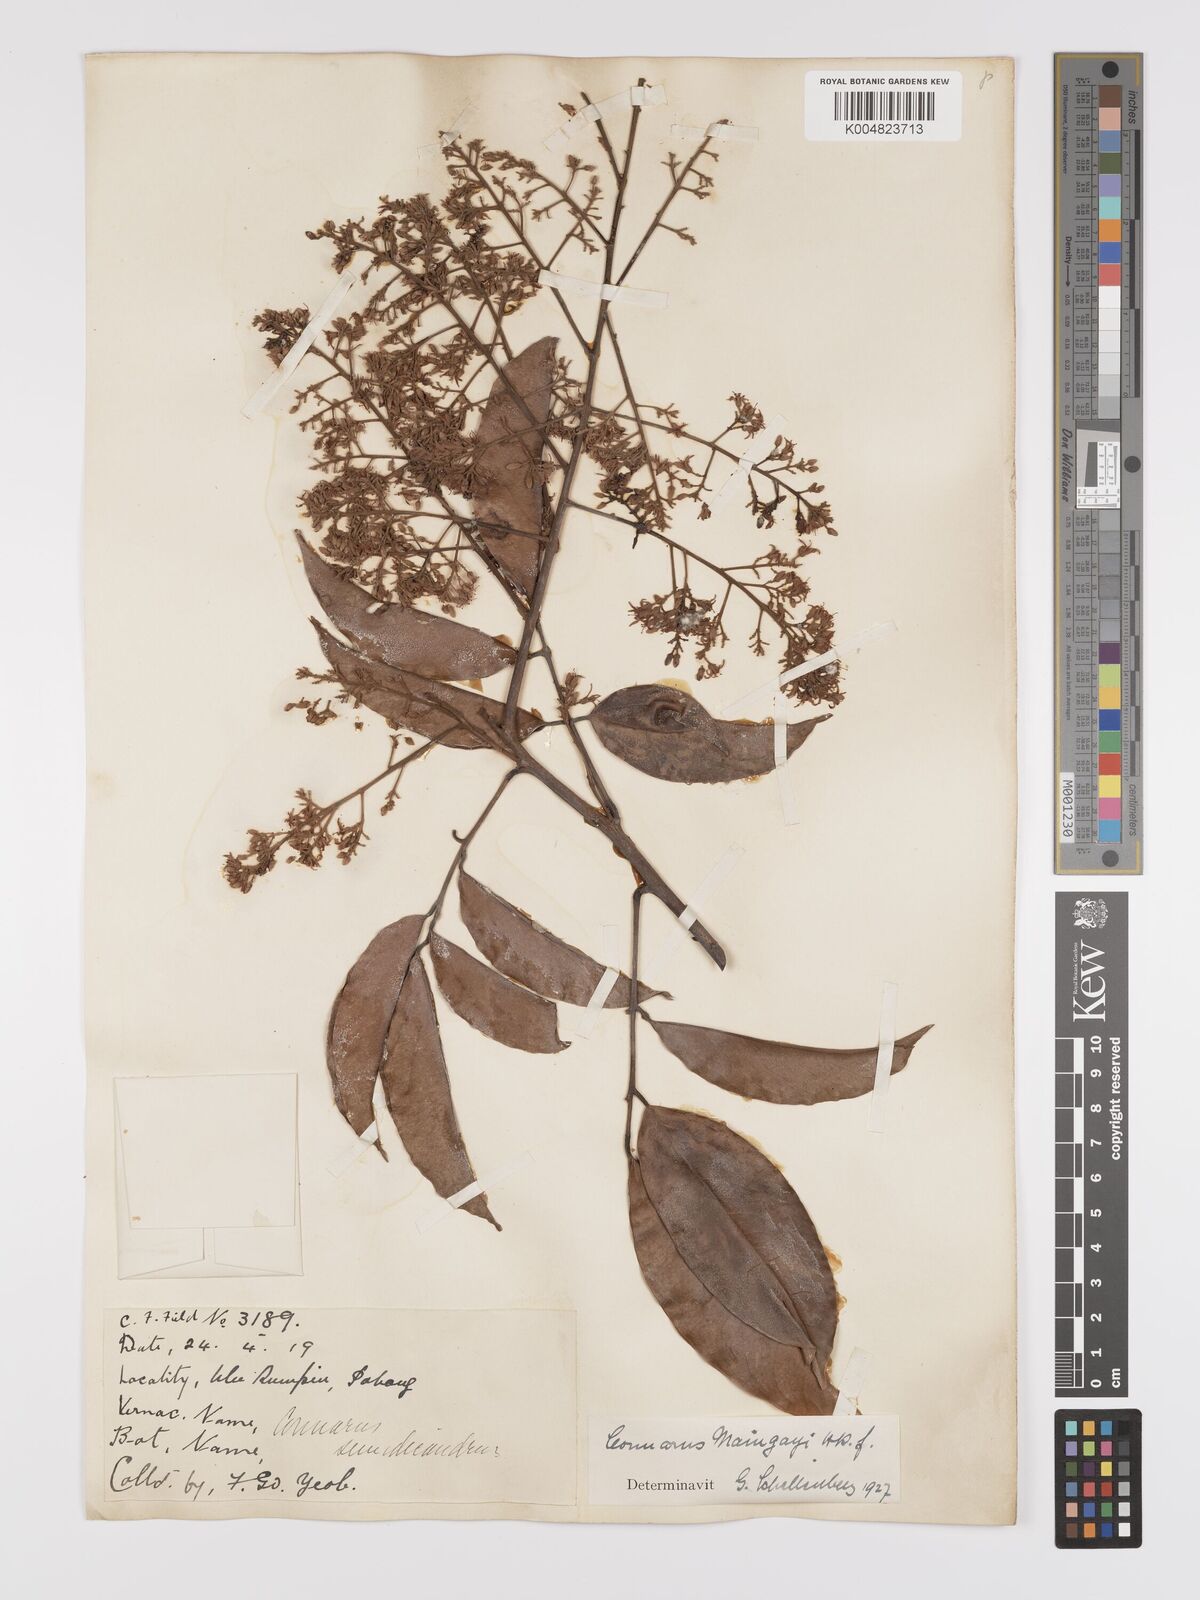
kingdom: Plantae
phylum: Tracheophyta
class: Magnoliopsida
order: Oxalidales
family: Connaraceae
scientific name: Connaraceae
